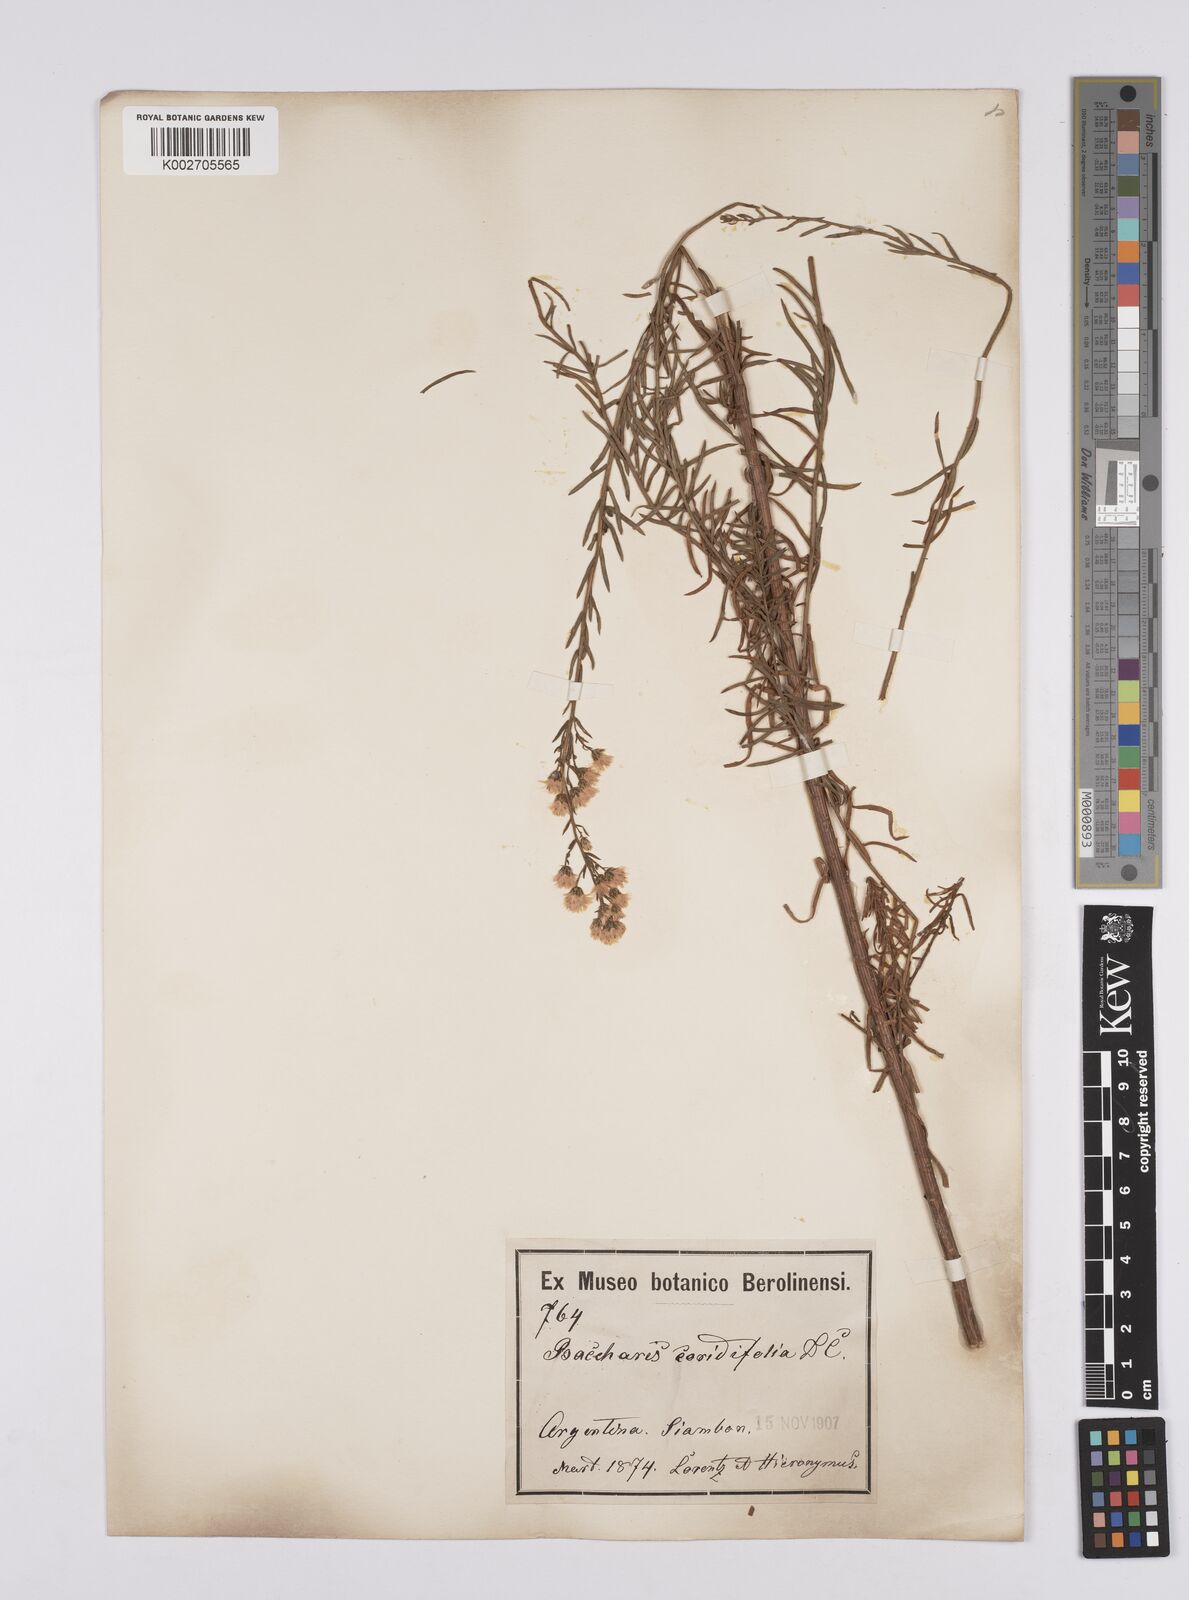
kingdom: Plantae
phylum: Tracheophyta
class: Magnoliopsida
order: Asterales
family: Asteraceae
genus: Baccharis
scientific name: Baccharis salicifolia
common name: Sticky baccharis
